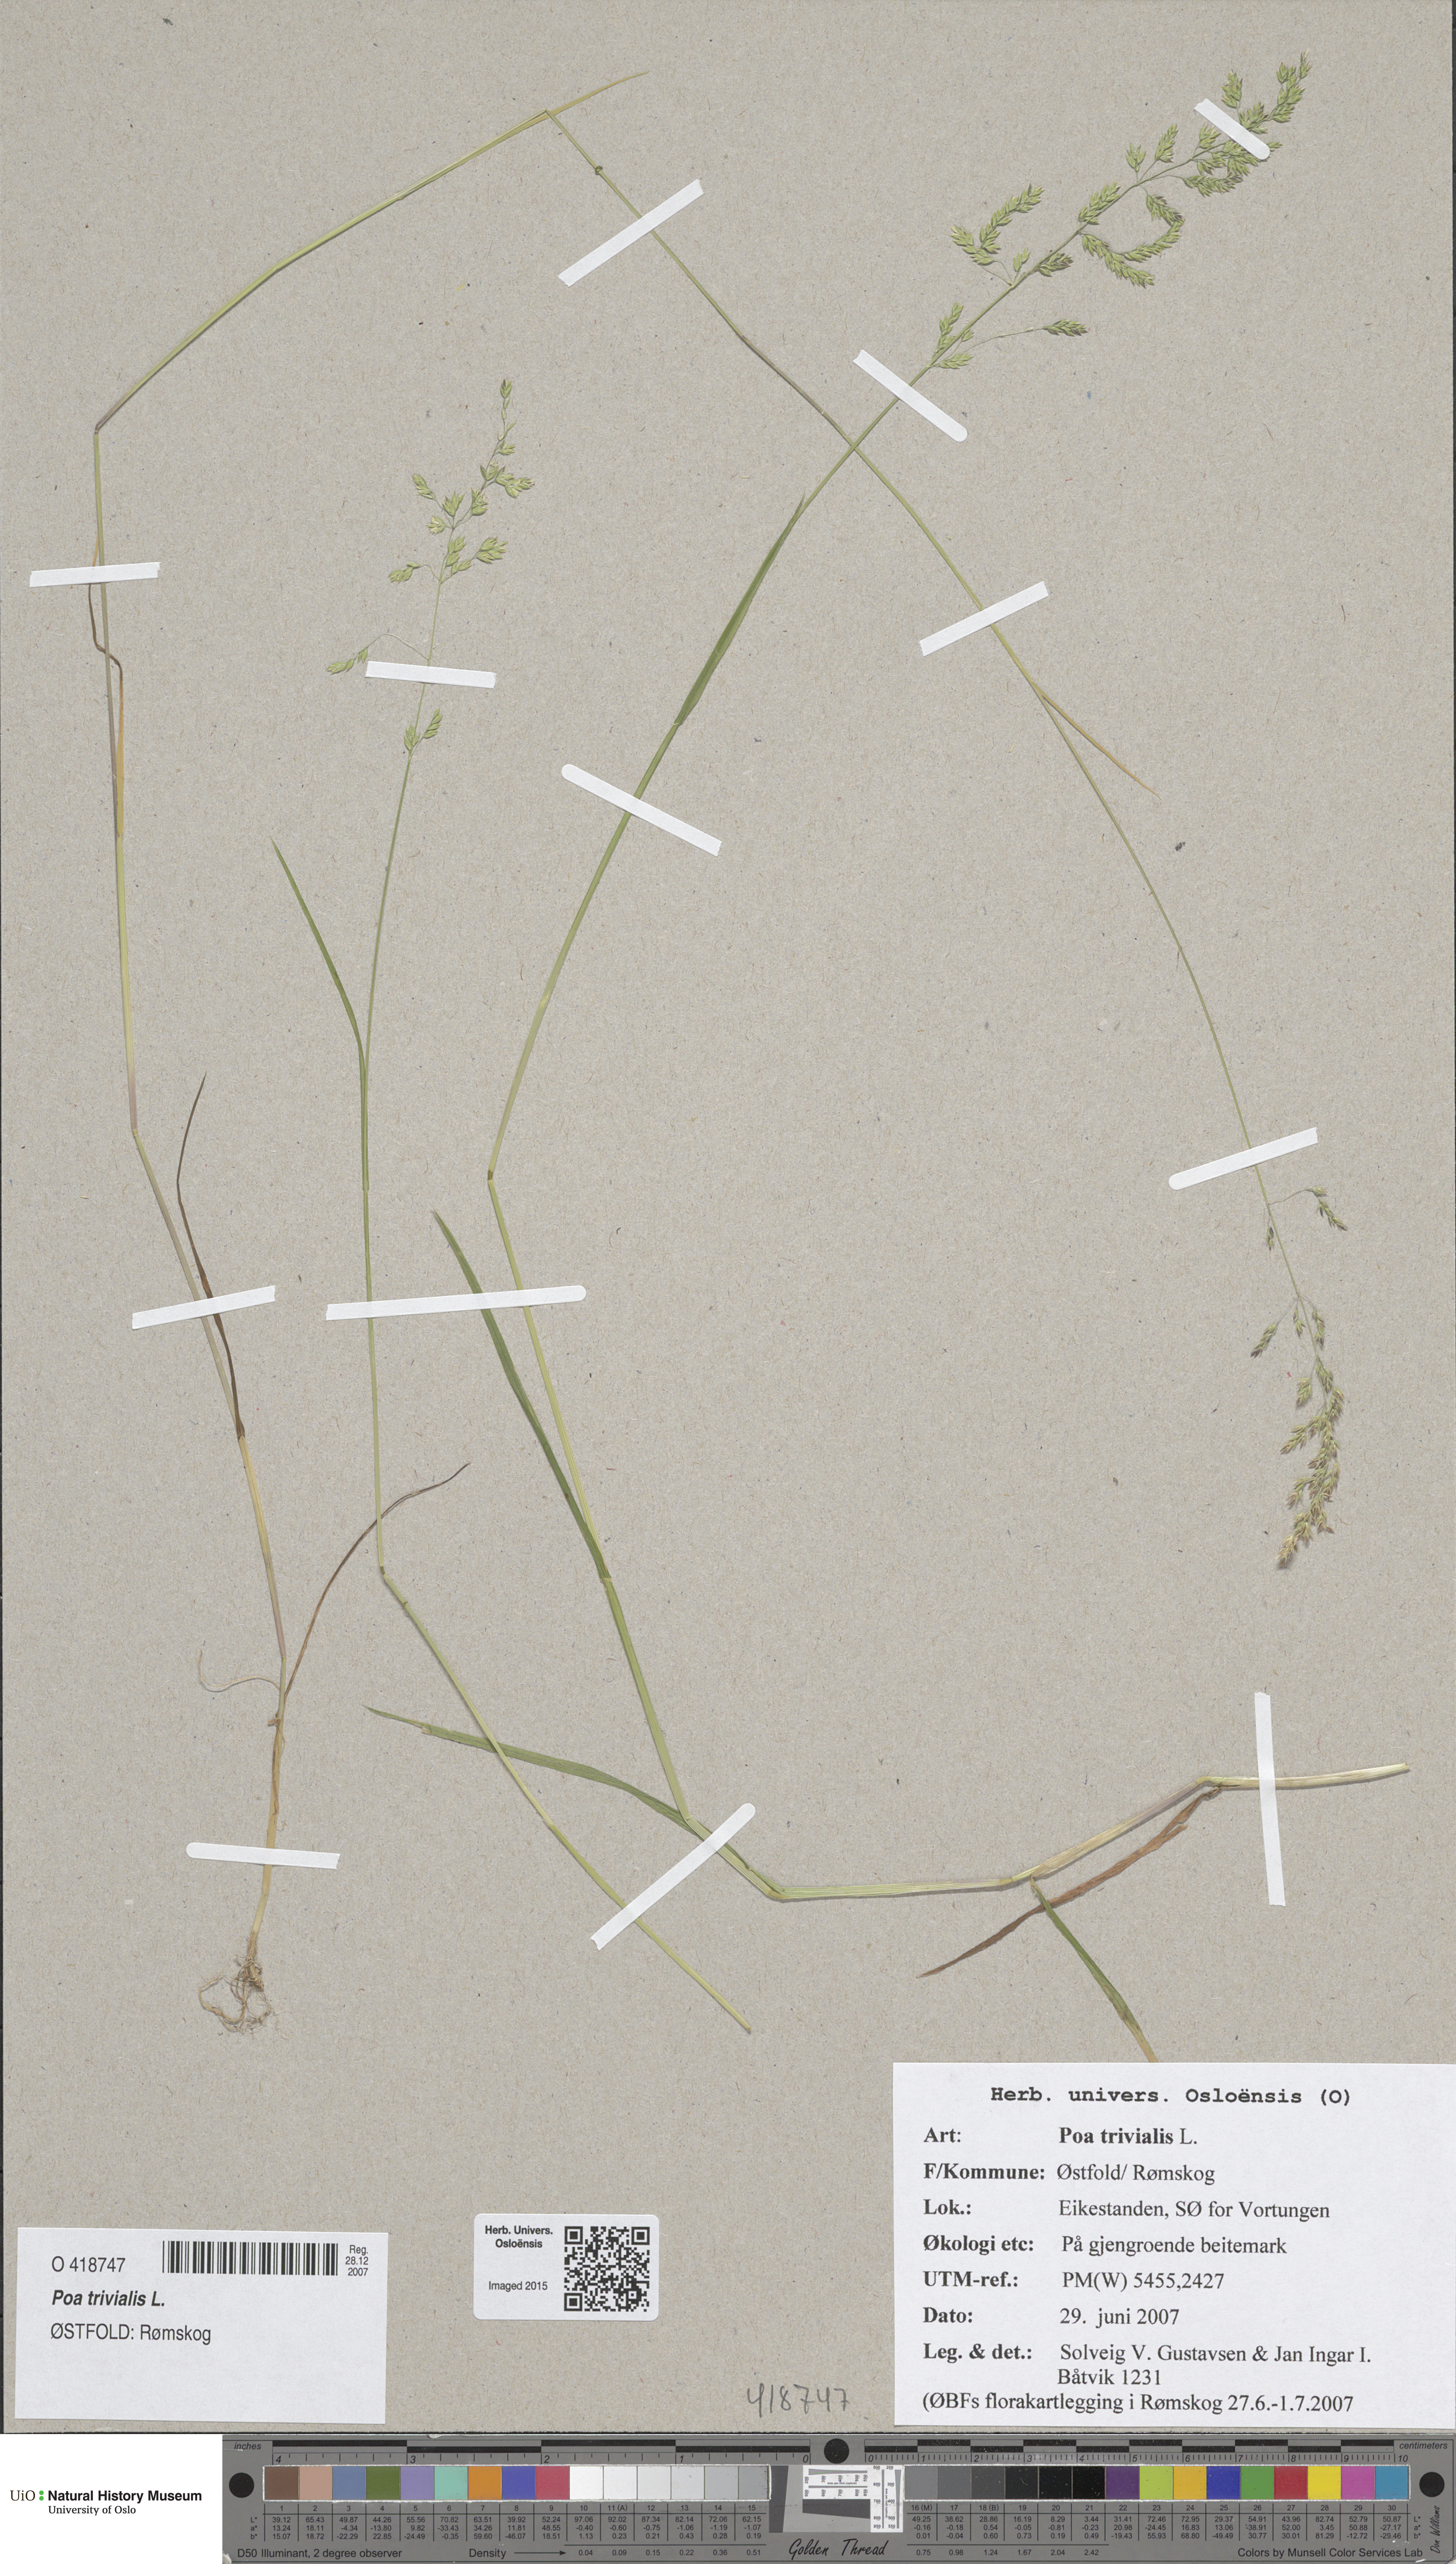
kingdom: Plantae
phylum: Tracheophyta
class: Liliopsida
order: Poales
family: Poaceae
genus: Poa
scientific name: Poa trivialis
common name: Rough bluegrass
